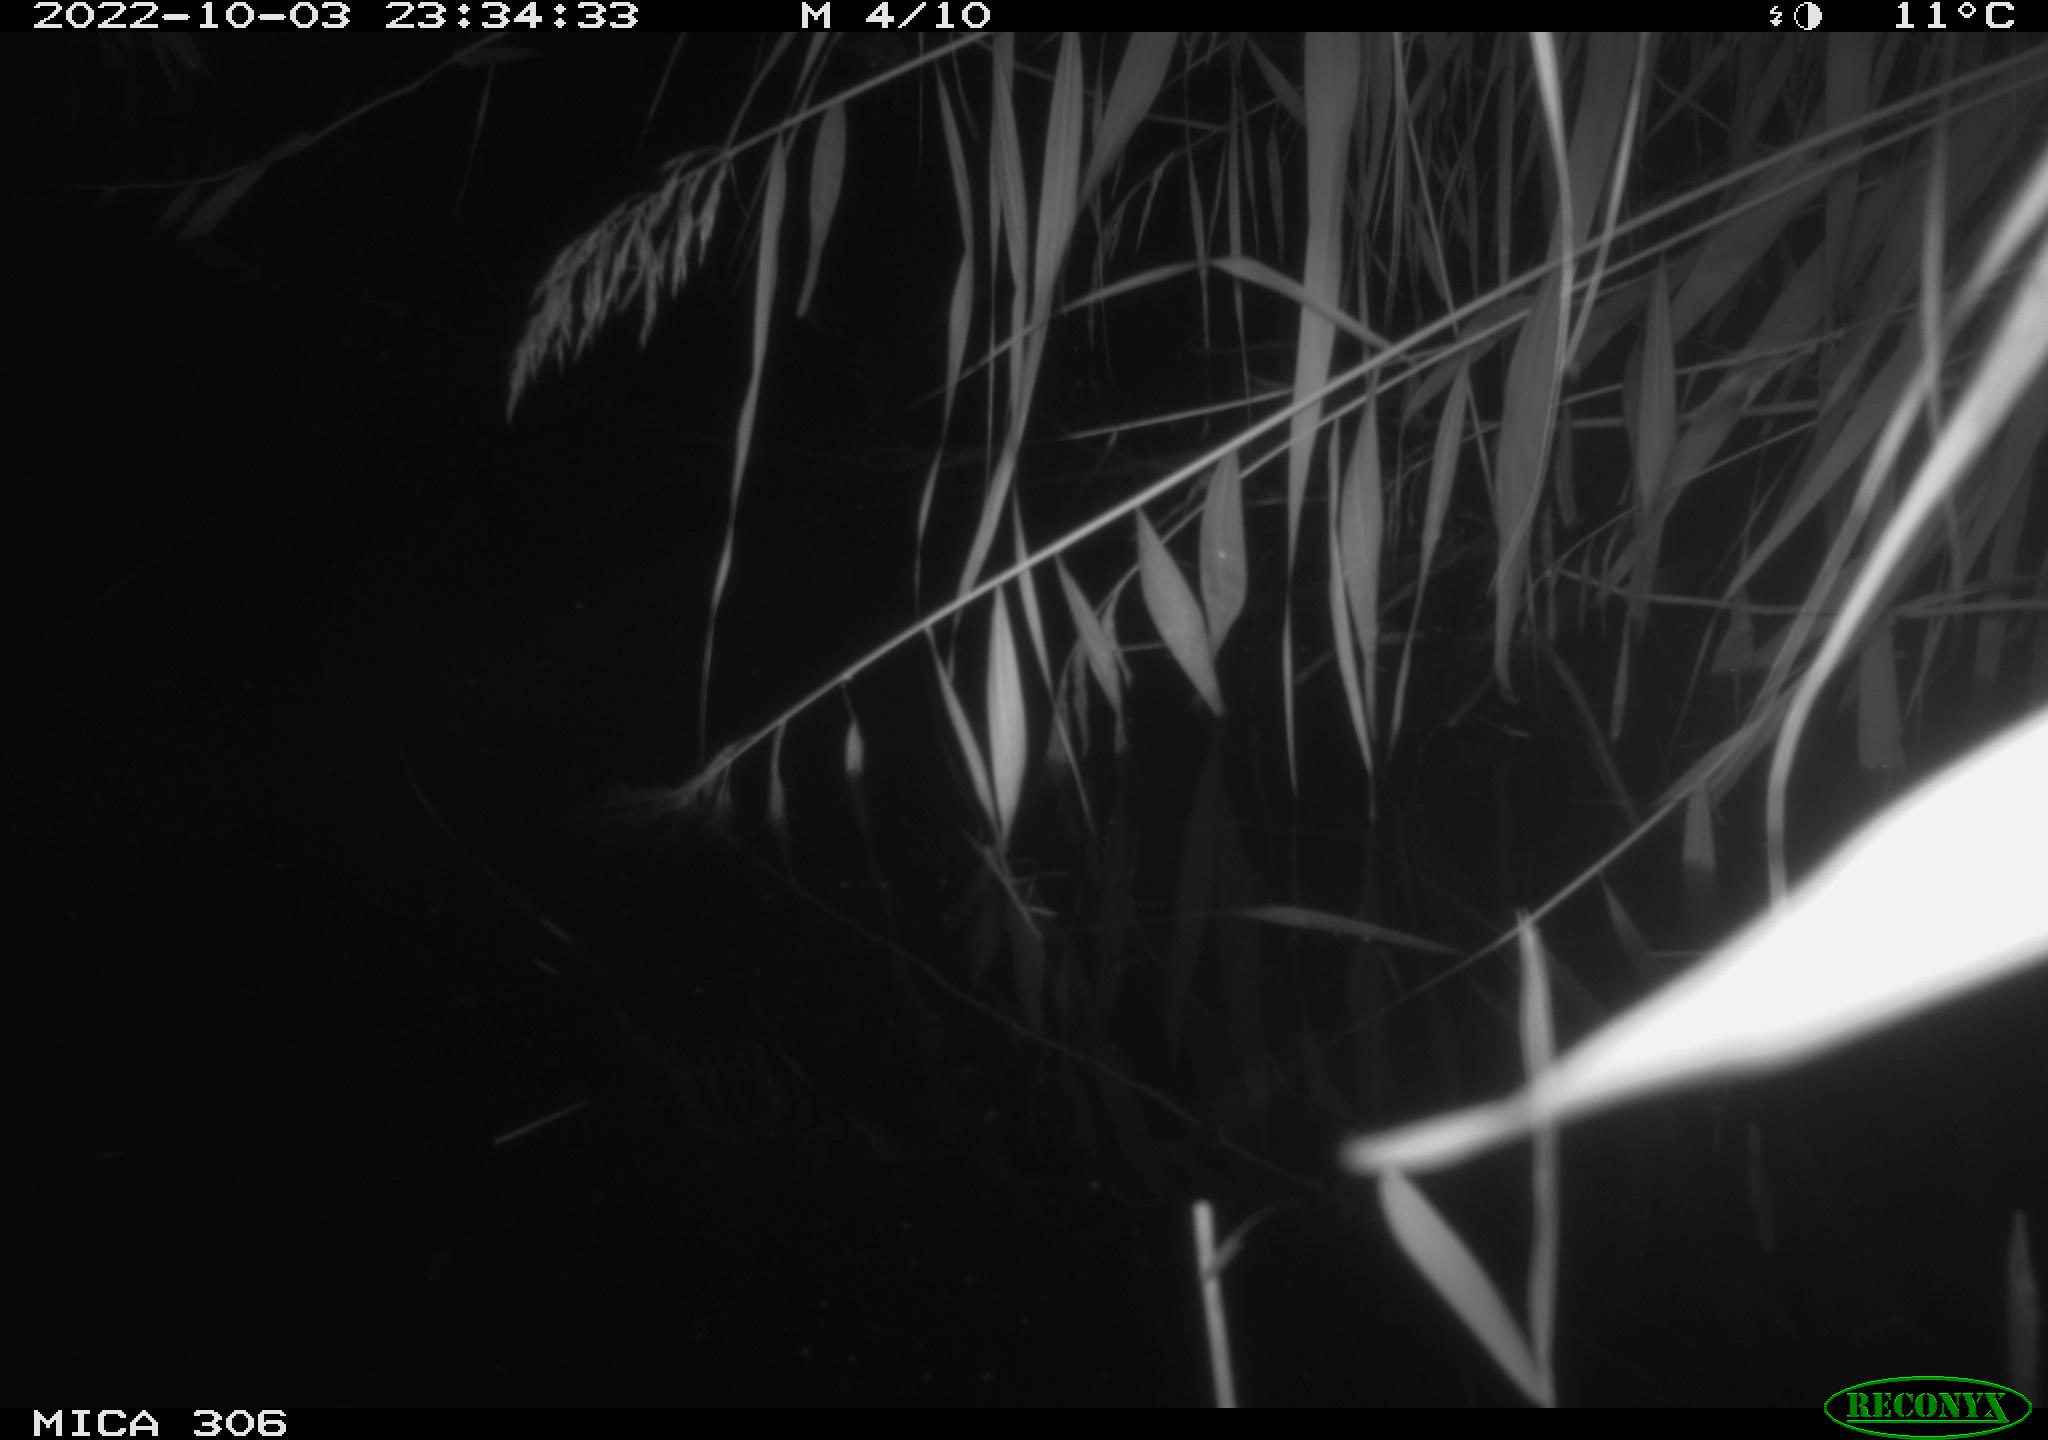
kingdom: Animalia
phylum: Chordata
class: Mammalia
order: Rodentia
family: Muridae
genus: Rattus
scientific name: Rattus norvegicus
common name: Brown rat
